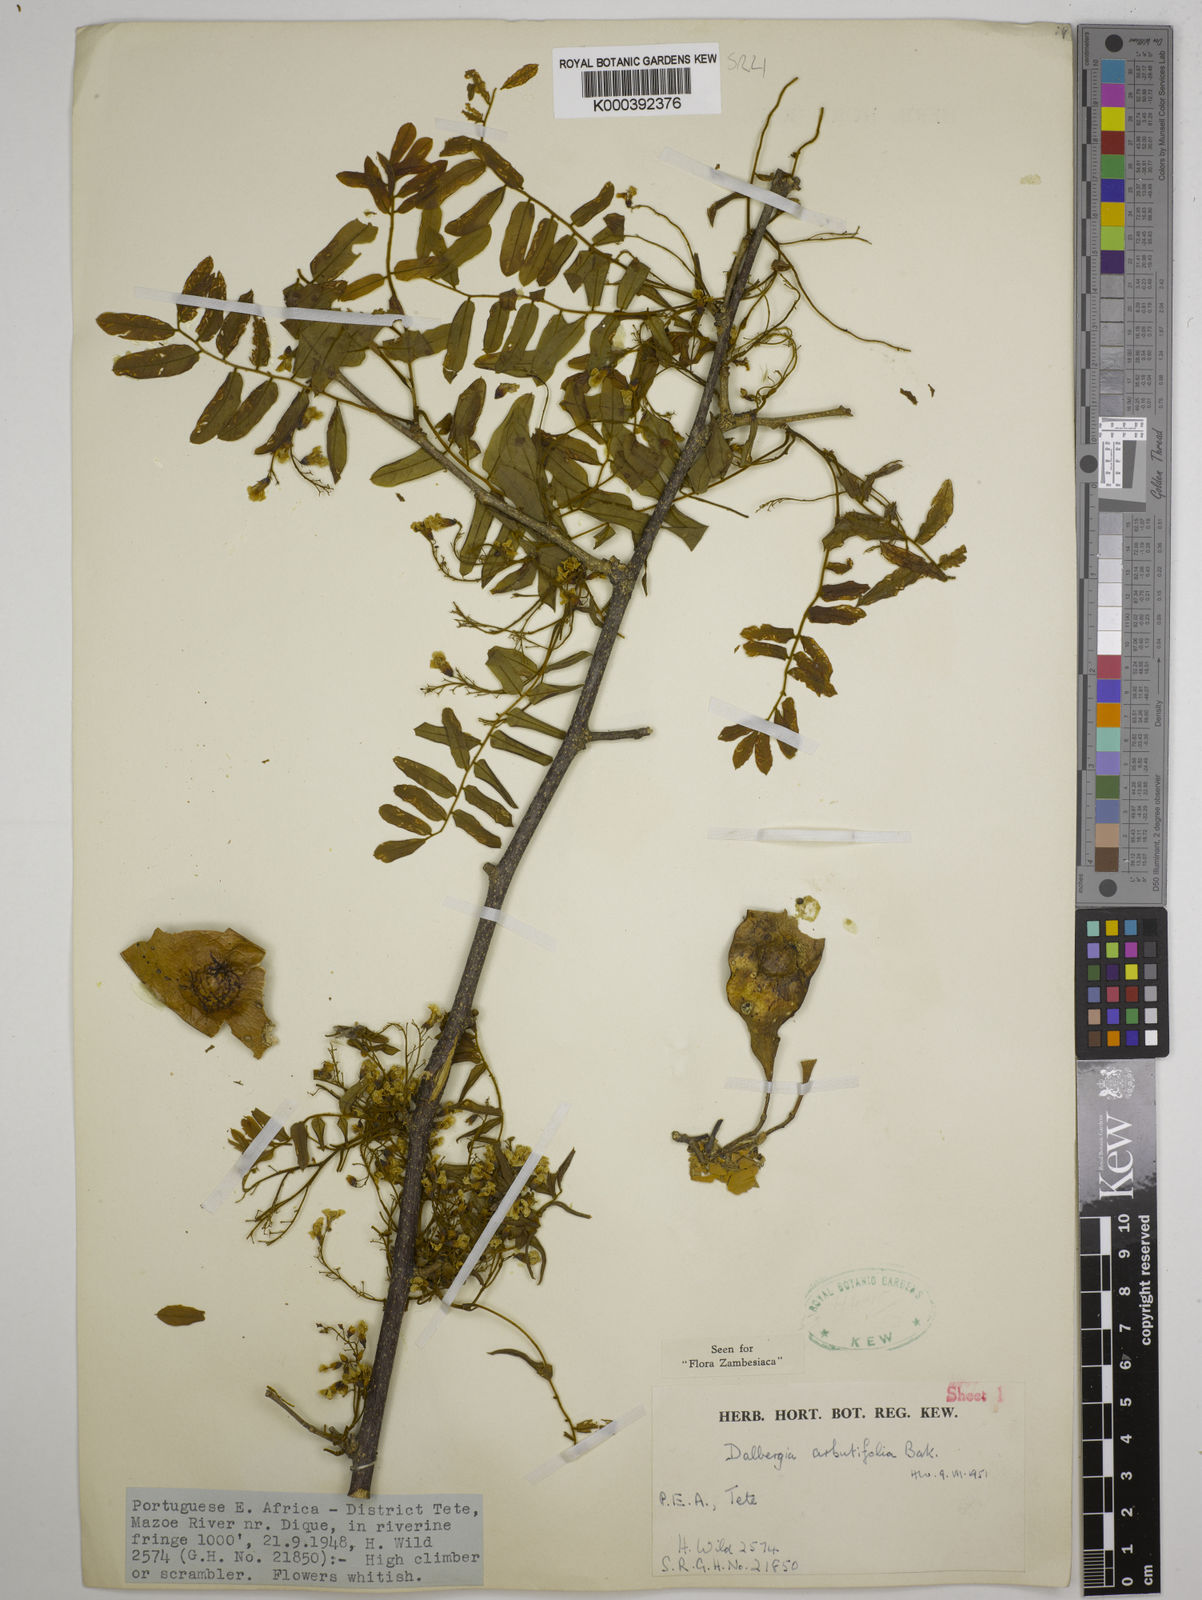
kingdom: Plantae
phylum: Tracheophyta
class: Magnoliopsida
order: Fabales
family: Fabaceae
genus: Dalbergia
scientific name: Dalbergia arbutifolia
